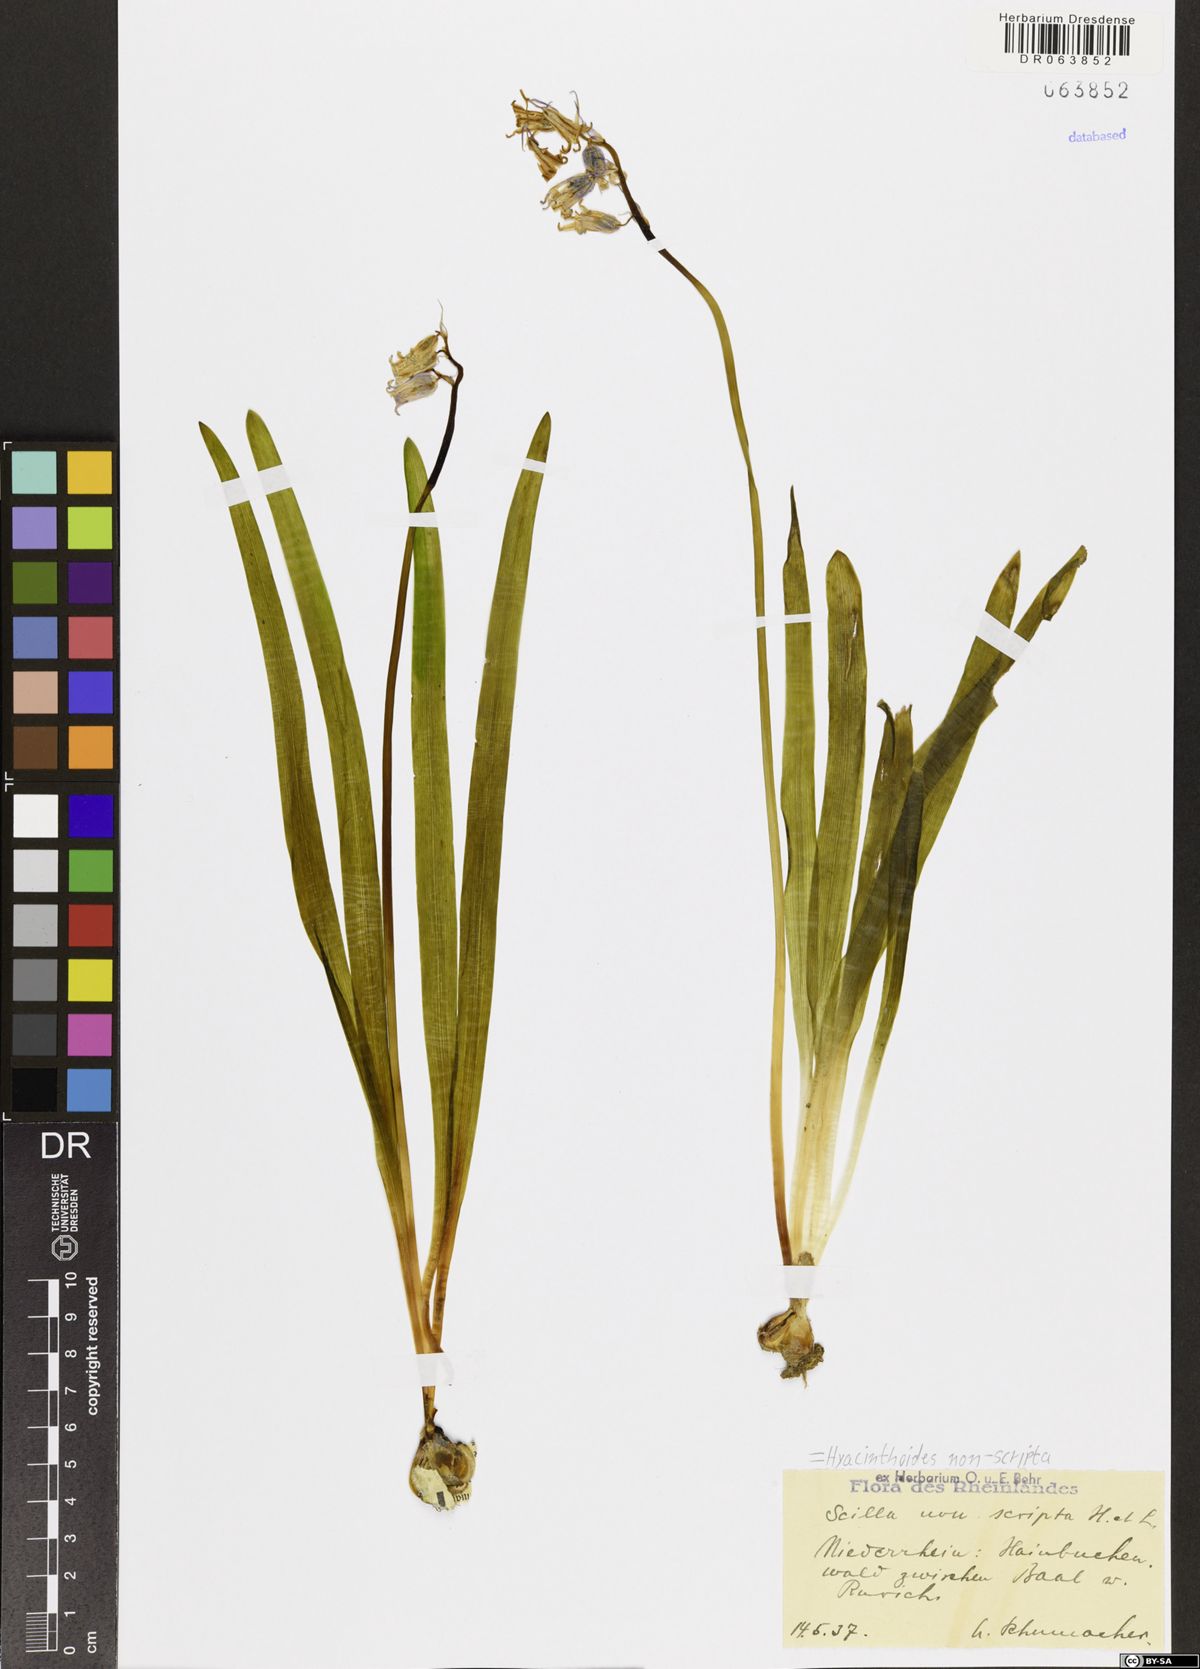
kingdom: Plantae
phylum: Tracheophyta
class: Liliopsida
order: Asparagales
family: Asparagaceae
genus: Hyacinthoides
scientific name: Hyacinthoides non-scripta
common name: Bluebell
